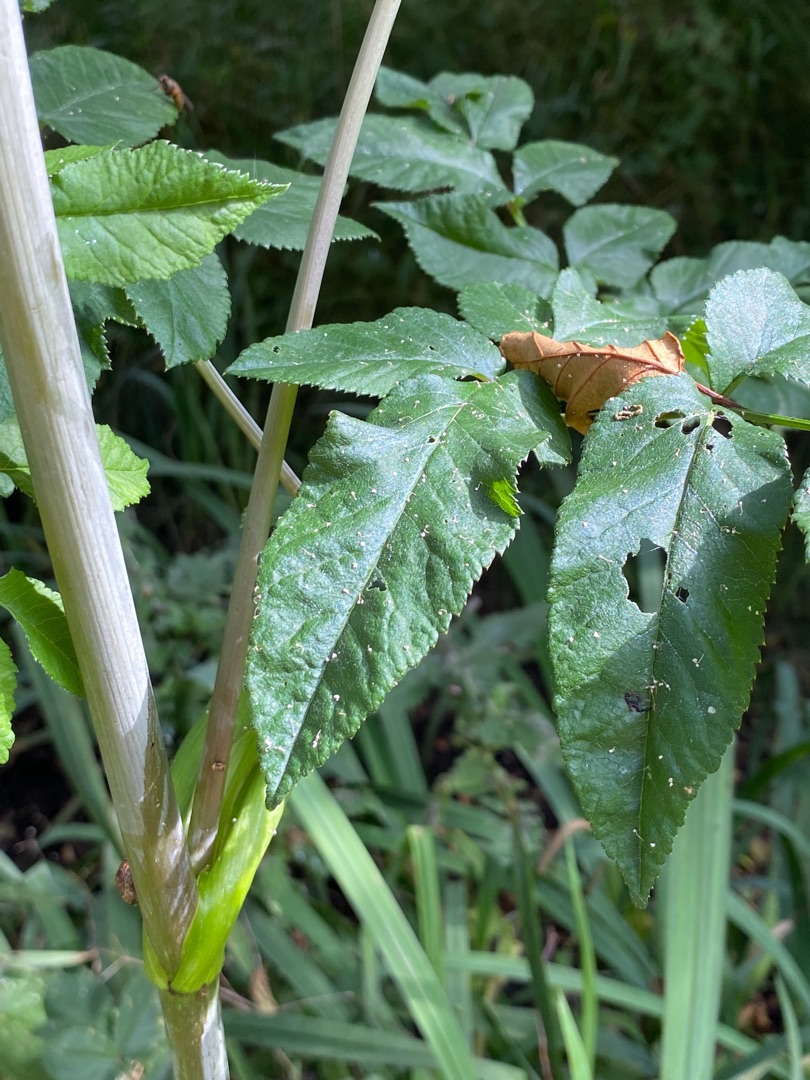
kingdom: Plantae
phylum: Tracheophyta
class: Magnoliopsida
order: Apiales
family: Apiaceae
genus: Angelica
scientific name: Angelica sylvestris
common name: Angelik
